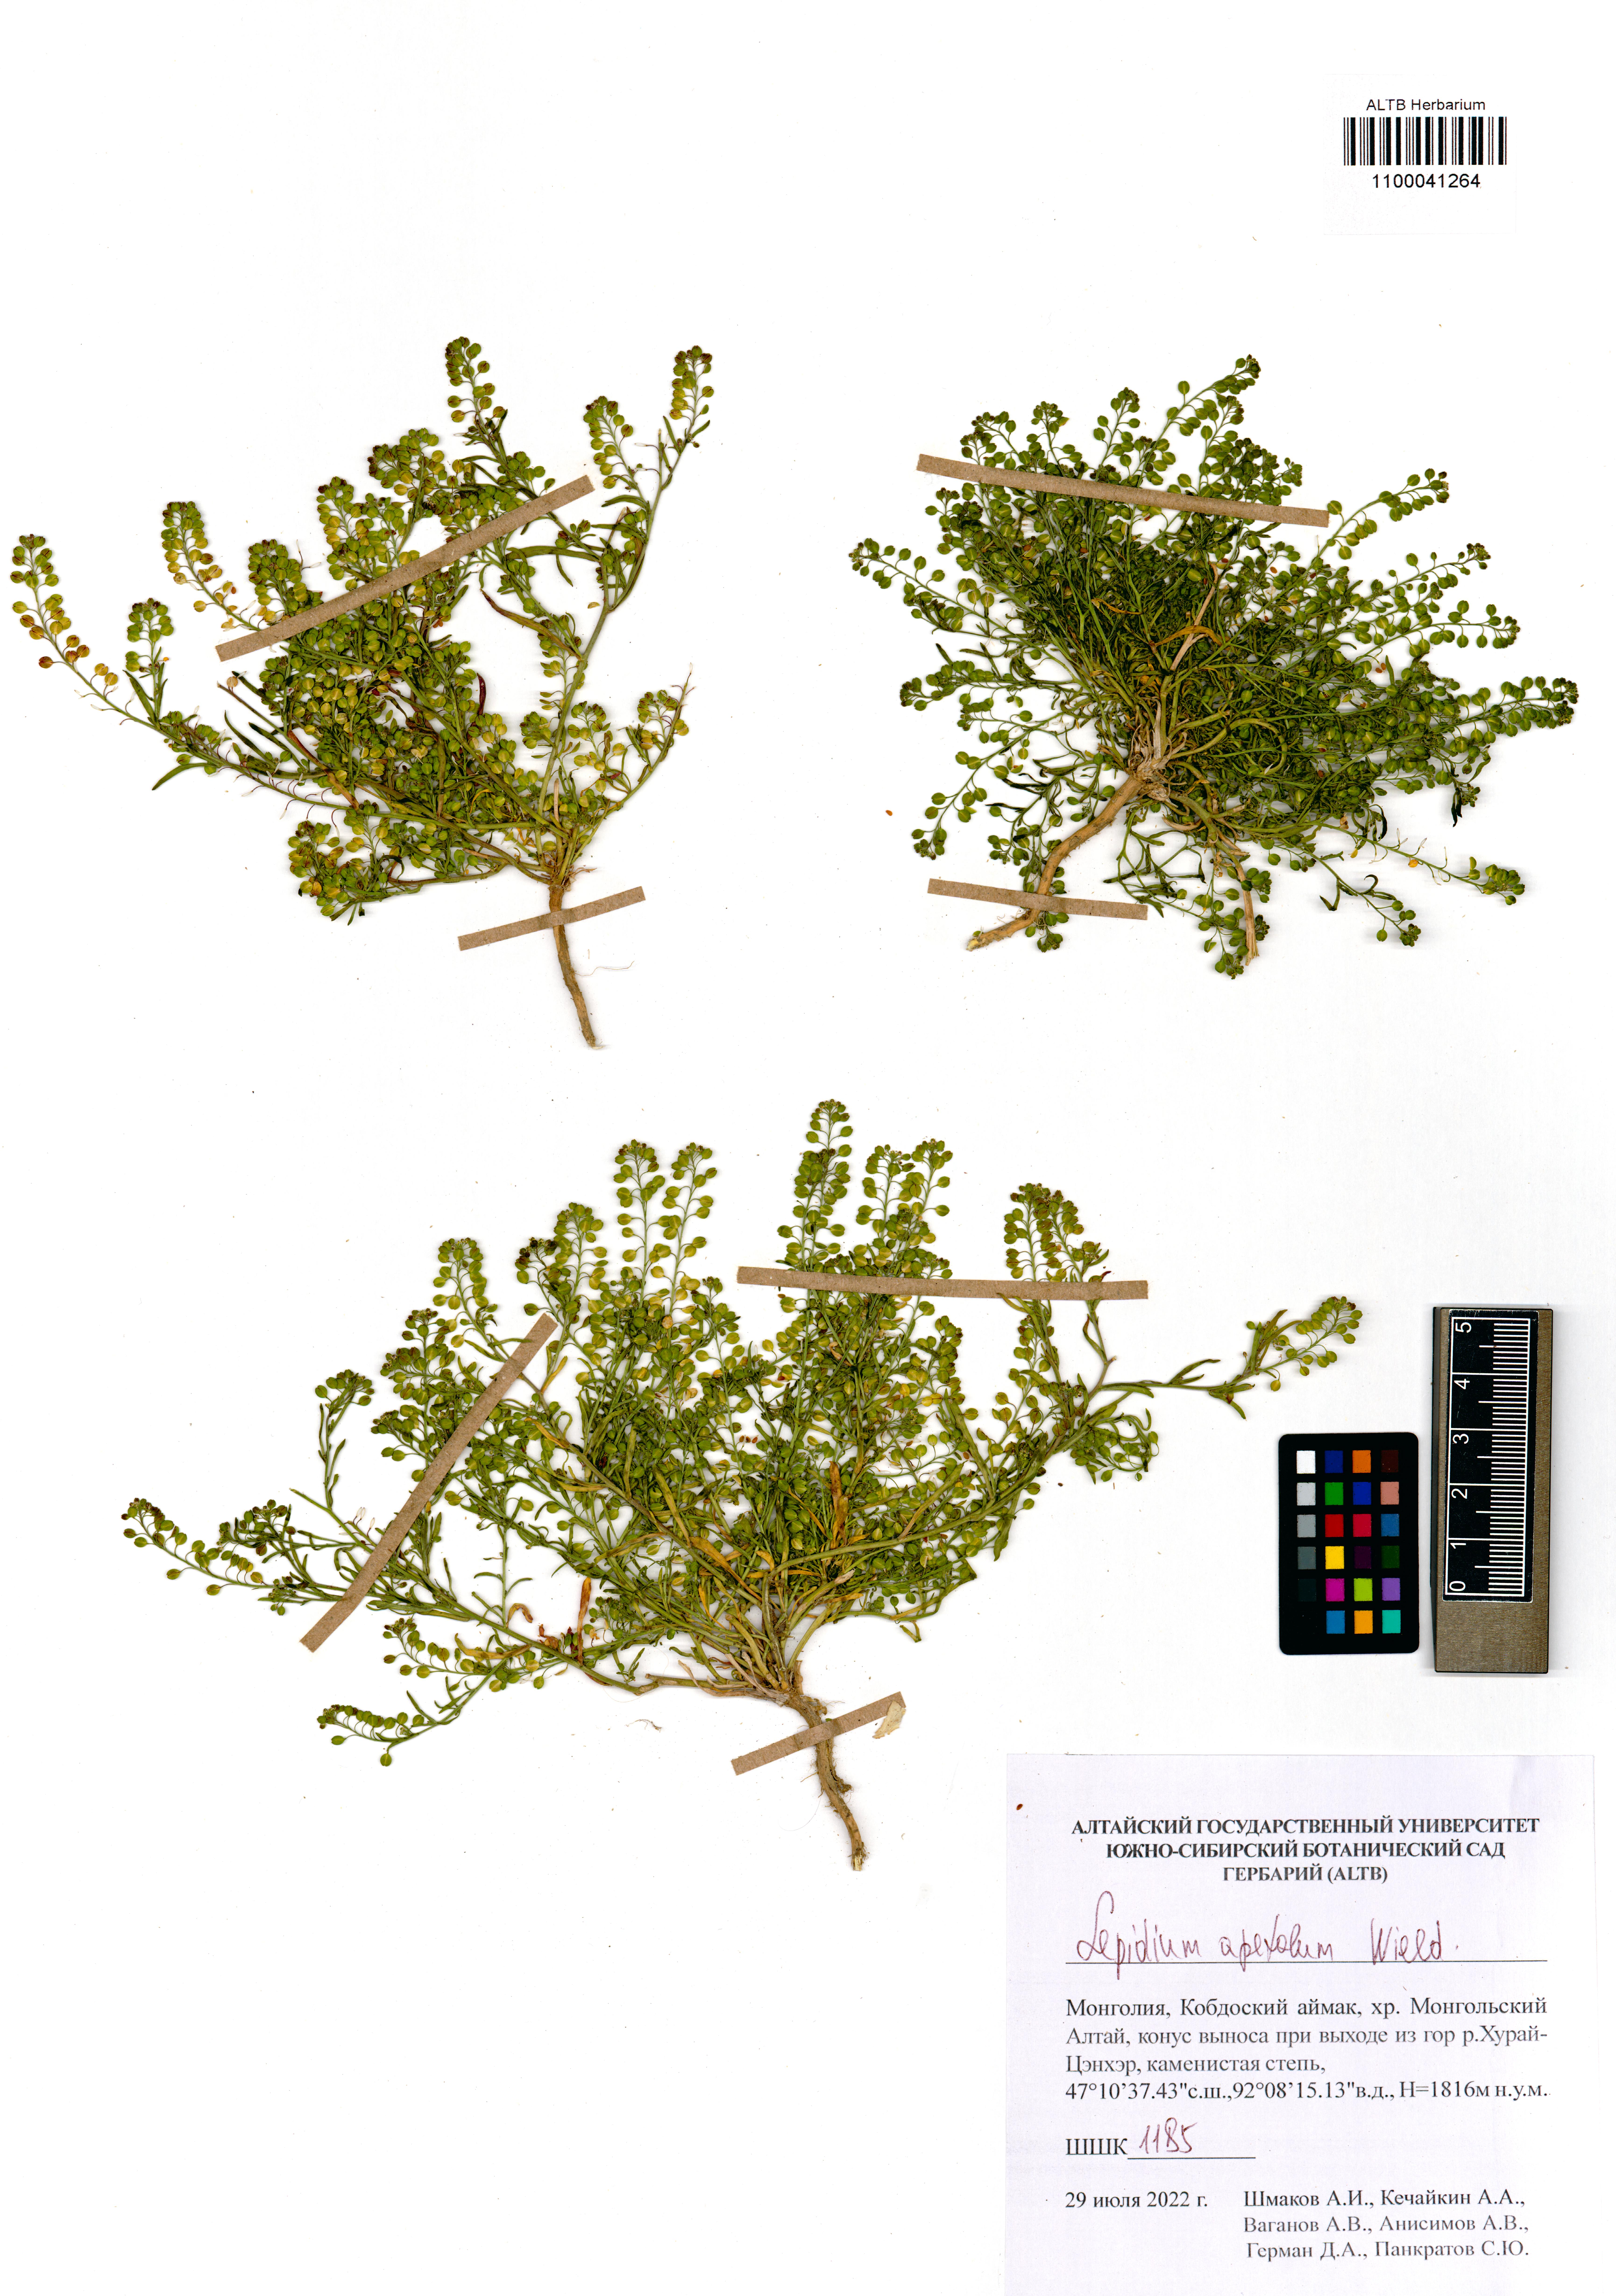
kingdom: Plantae
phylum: Tracheophyta
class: Magnoliopsida
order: Brassicales
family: Brassicaceae
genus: Lepidium
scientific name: Lepidium apetalum
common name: Pepperweed
